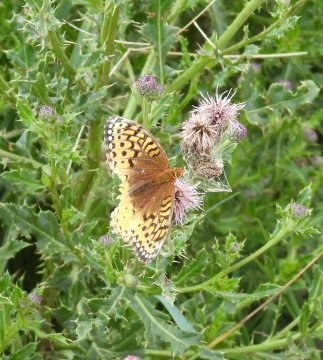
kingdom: Animalia
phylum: Arthropoda
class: Insecta
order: Lepidoptera
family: Nymphalidae
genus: Speyeria
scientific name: Speyeria cybele
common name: Great Spangled Fritillary
